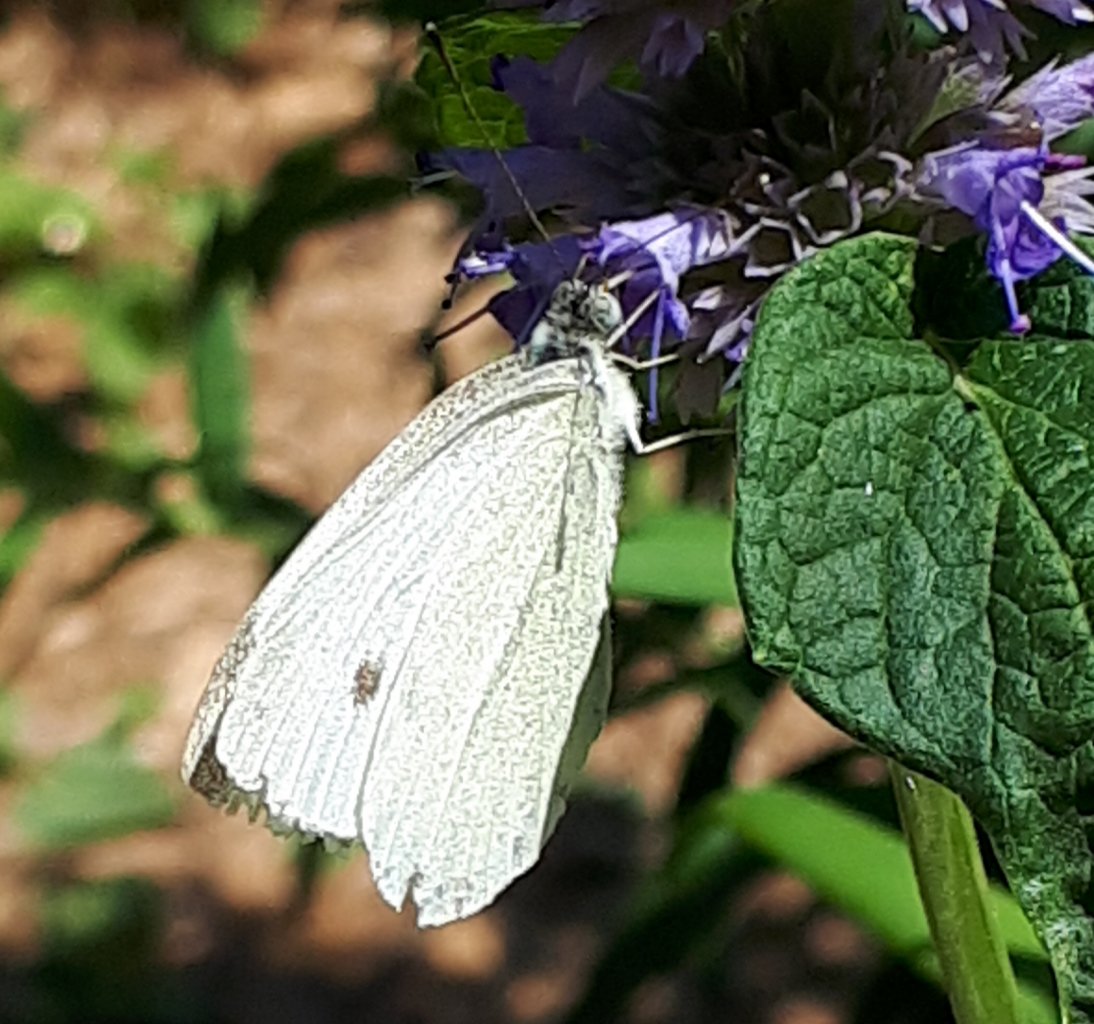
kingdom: Animalia
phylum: Arthropoda
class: Insecta
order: Lepidoptera
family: Pieridae
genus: Pieris
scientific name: Pieris rapae
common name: Cabbage White
